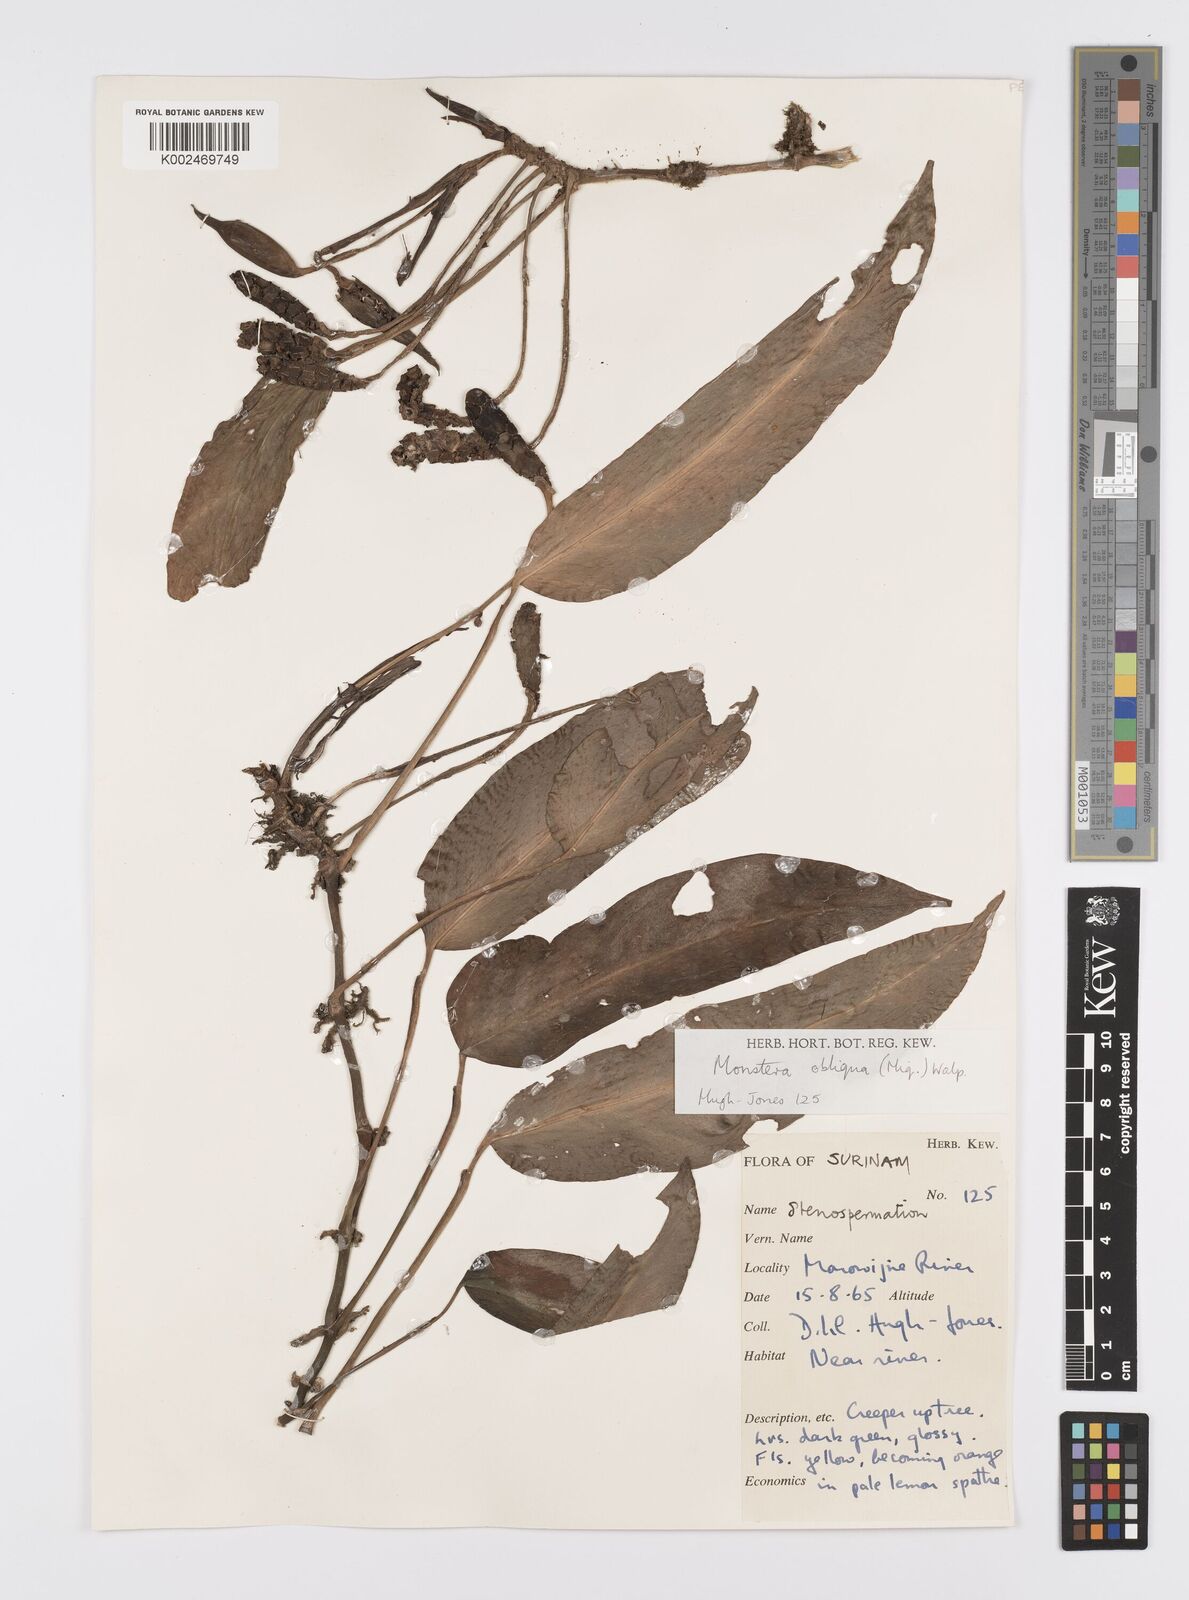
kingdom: Plantae
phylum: Tracheophyta
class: Liliopsida
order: Alismatales
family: Araceae
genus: Monstera
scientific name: Monstera obliqua
